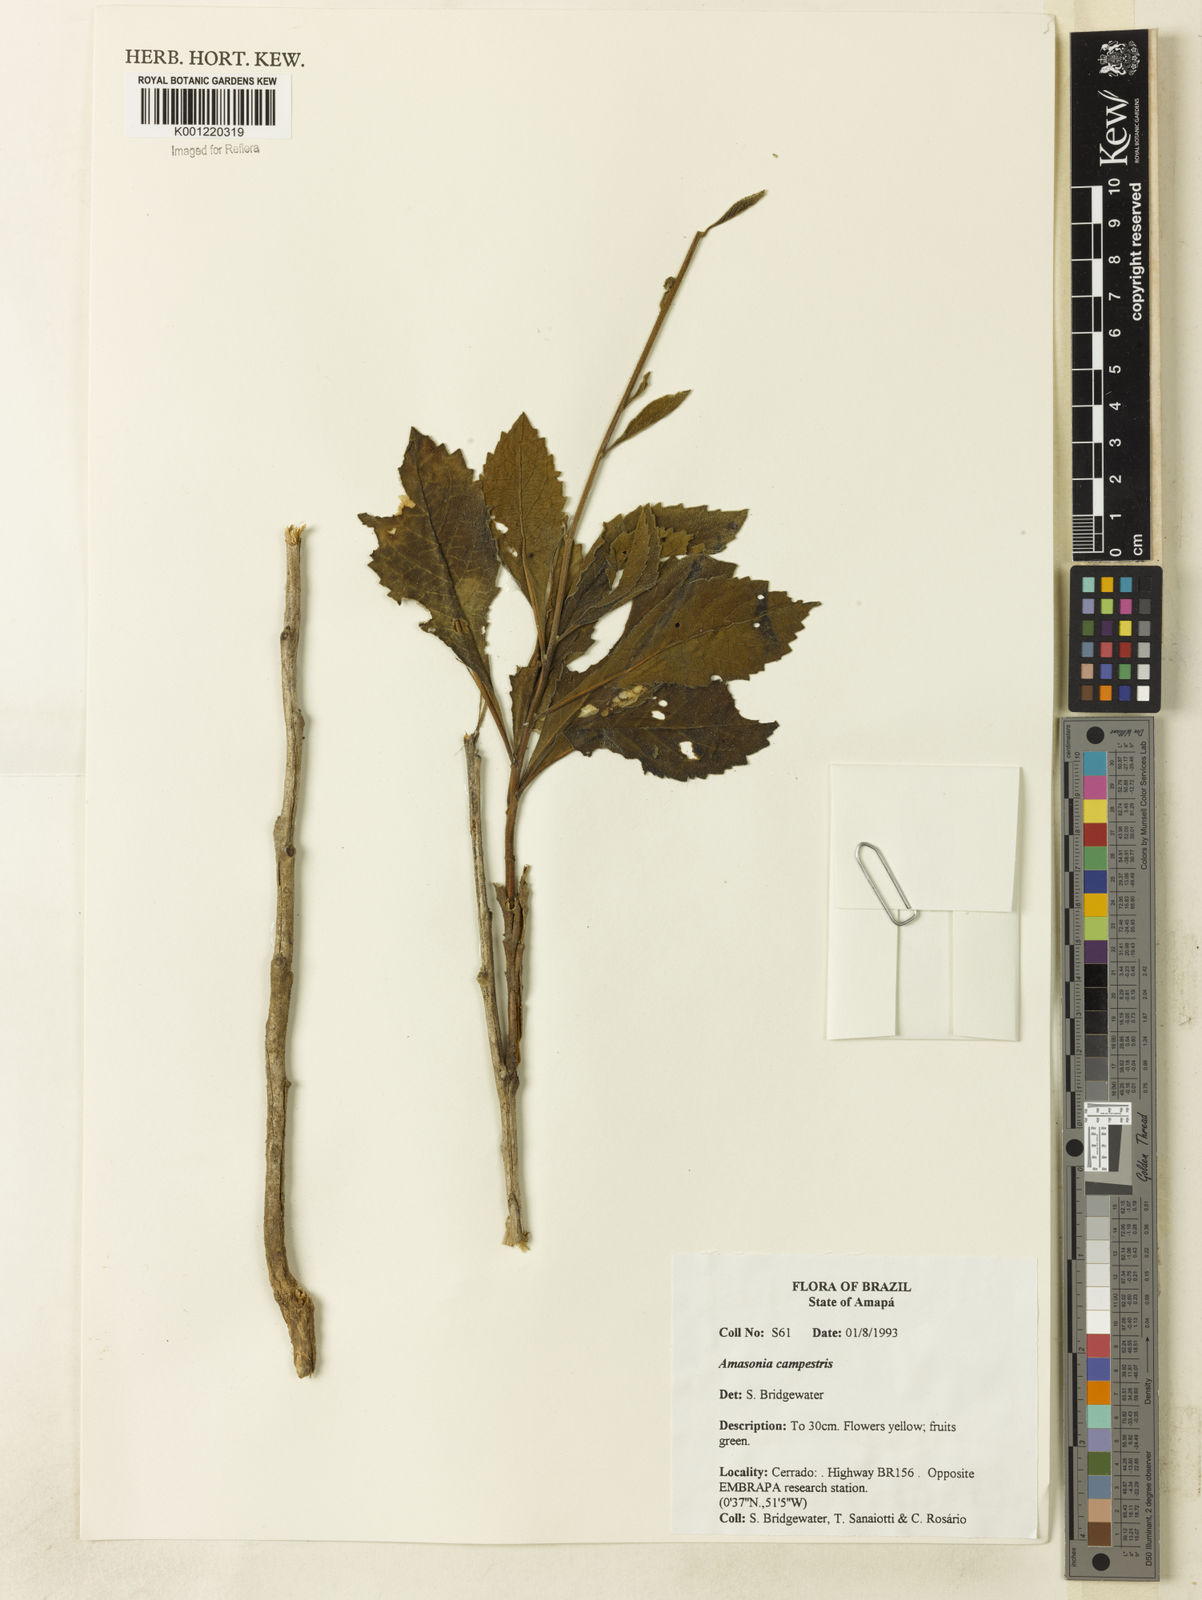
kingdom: Plantae
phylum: Tracheophyta
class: Magnoliopsida
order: Lamiales
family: Lamiaceae
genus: Amasonia
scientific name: Amasonia campestris
